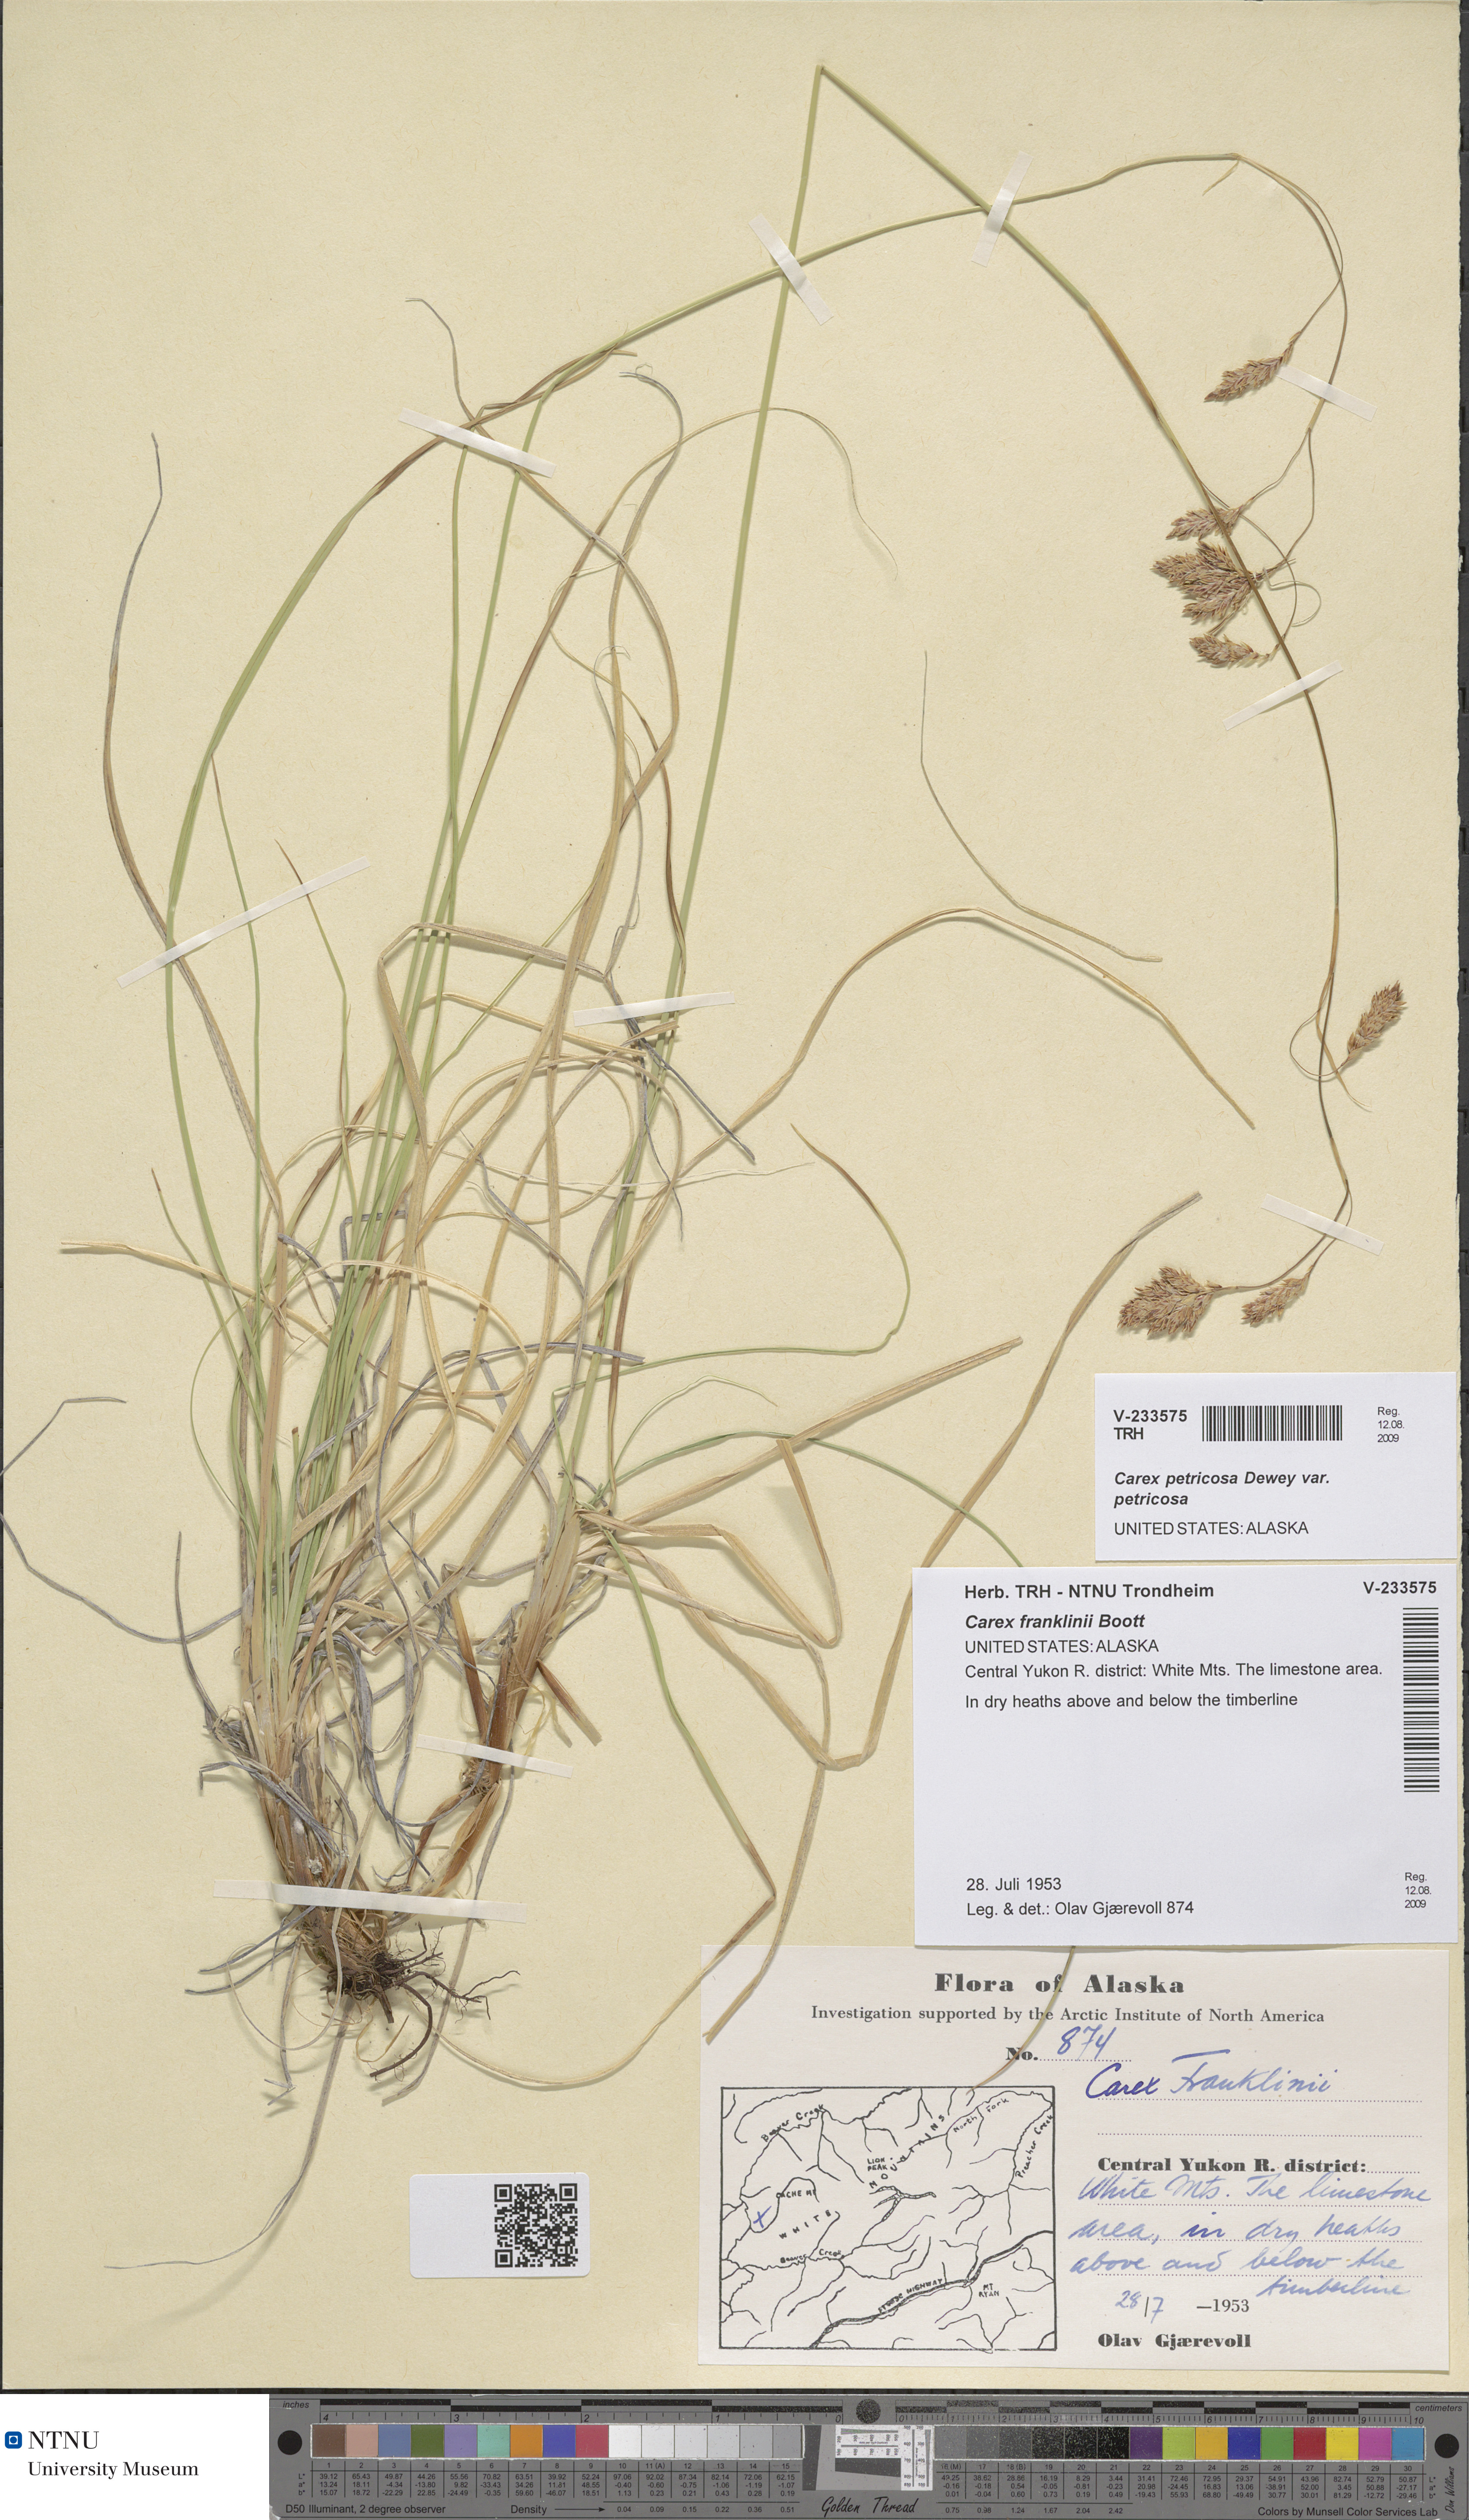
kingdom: Plantae
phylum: Tracheophyta
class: Liliopsida
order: Poales
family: Cyperaceae
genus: Carex
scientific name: Carex petricosa
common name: Rock sedge
